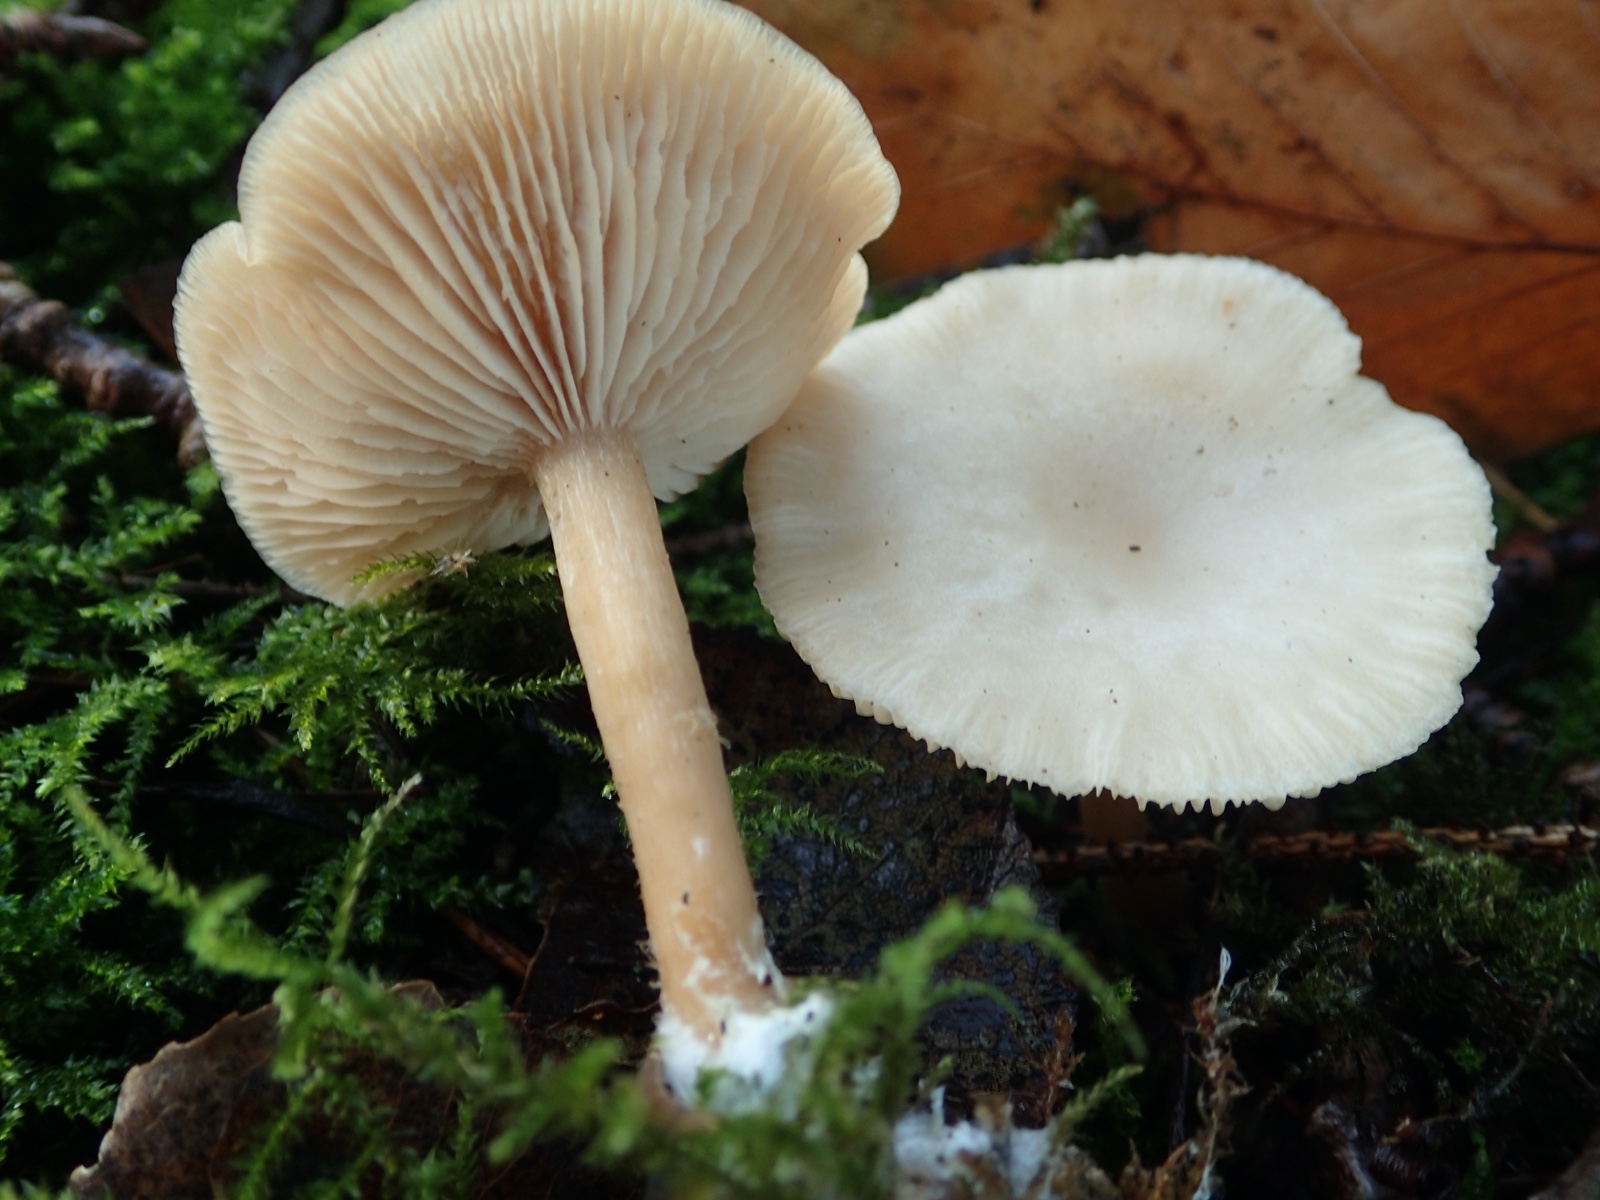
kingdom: Fungi
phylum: Basidiomycota
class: Agaricomycetes
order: Agaricales
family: Tricholomataceae
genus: Clitocybe
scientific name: Clitocybe fragrans
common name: vellugtende tragthat
